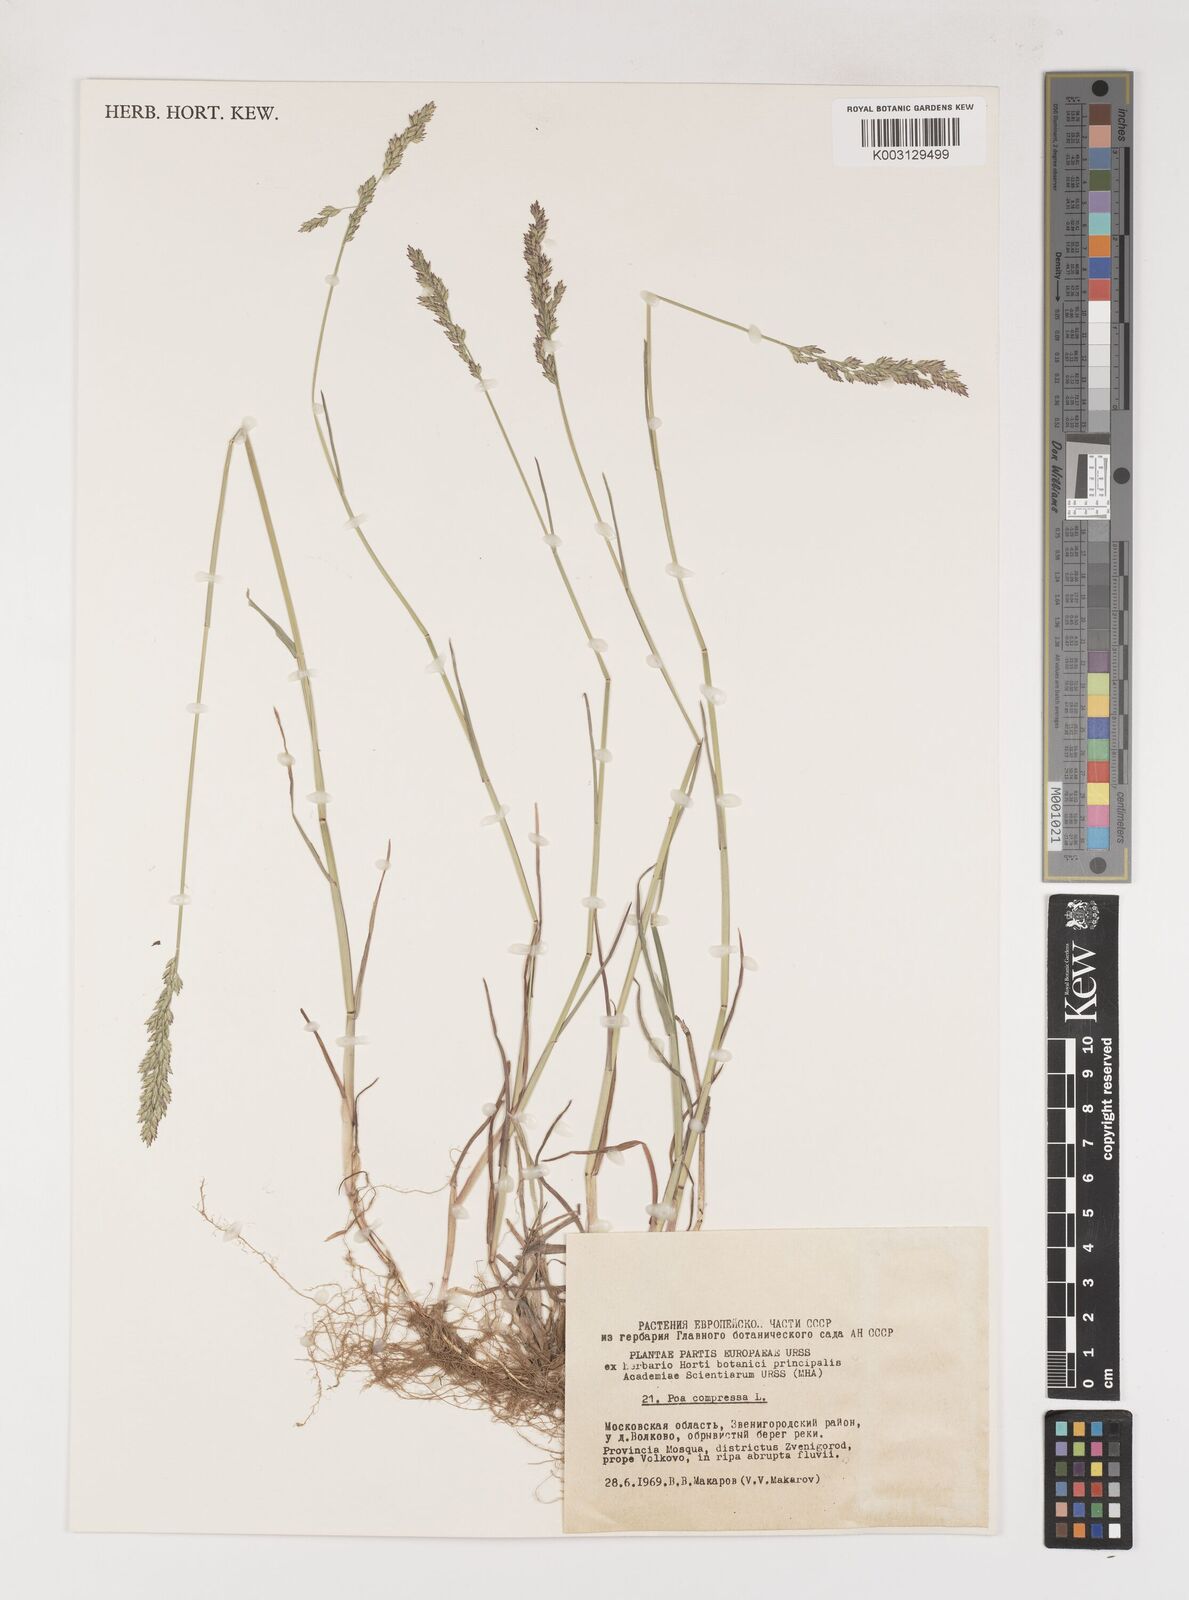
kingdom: Plantae
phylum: Tracheophyta
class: Liliopsida
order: Poales
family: Poaceae
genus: Poa
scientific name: Poa compressa
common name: Canada bluegrass
